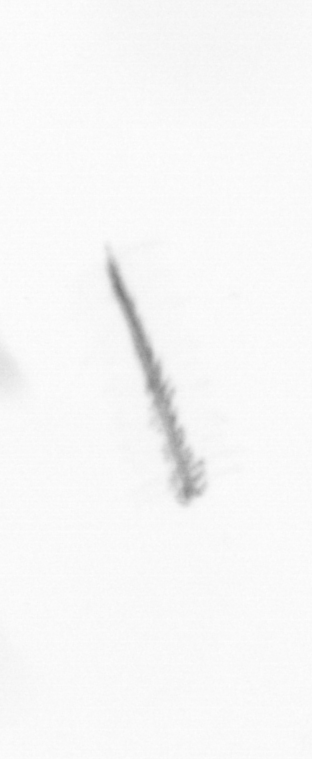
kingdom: Chromista
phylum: Ochrophyta
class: Bacillariophyceae
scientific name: Bacillariophyceae
